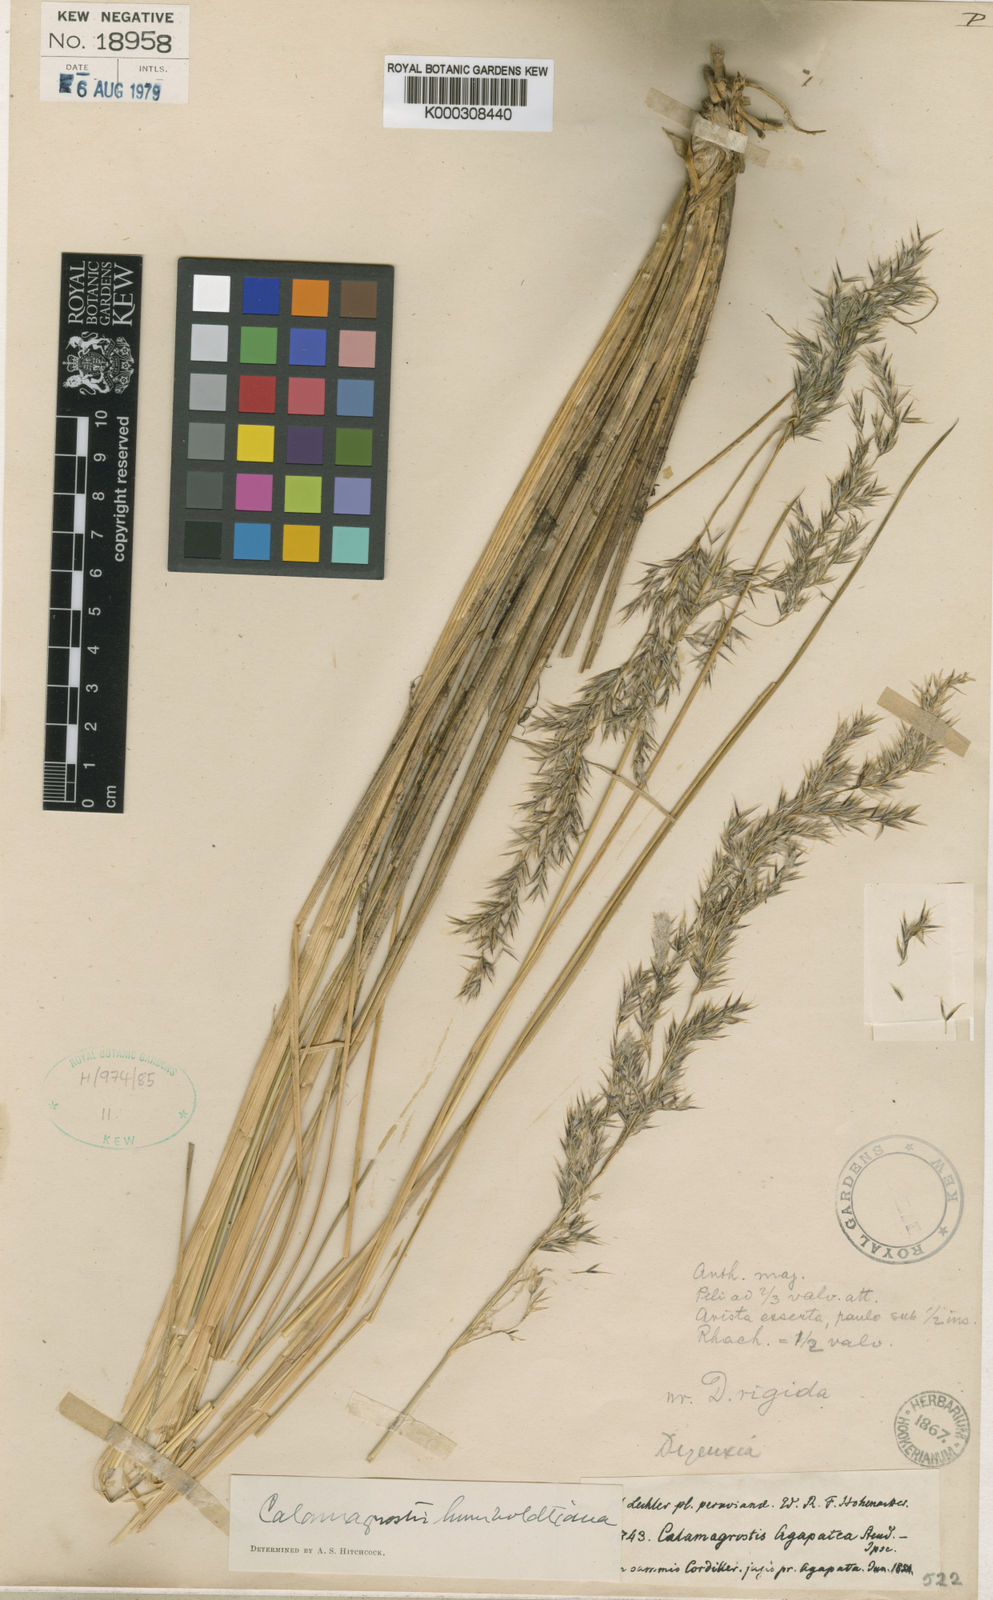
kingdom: Plantae
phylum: Tracheophyta
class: Liliopsida
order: Poales
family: Poaceae
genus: Cinnagrostis
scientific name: Cinnagrostis intermedia
